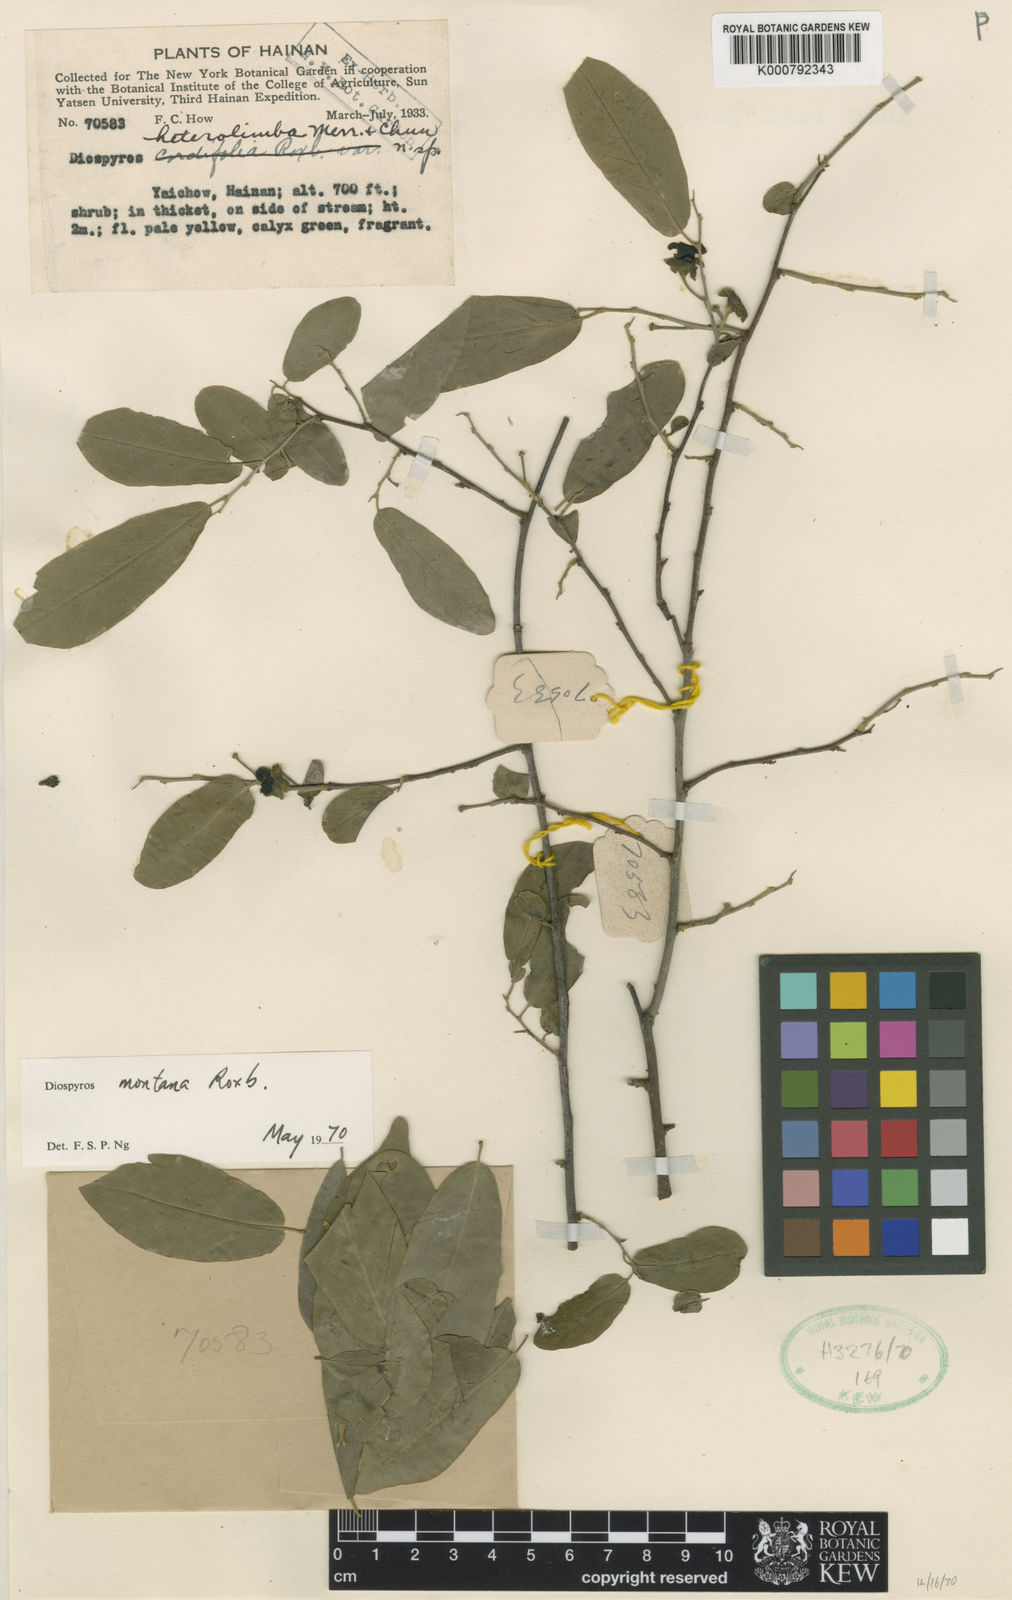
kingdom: Plantae
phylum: Tracheophyta
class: Magnoliopsida
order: Ericales
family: Ebenaceae
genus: Diospyros
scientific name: Diospyros diversilimba
